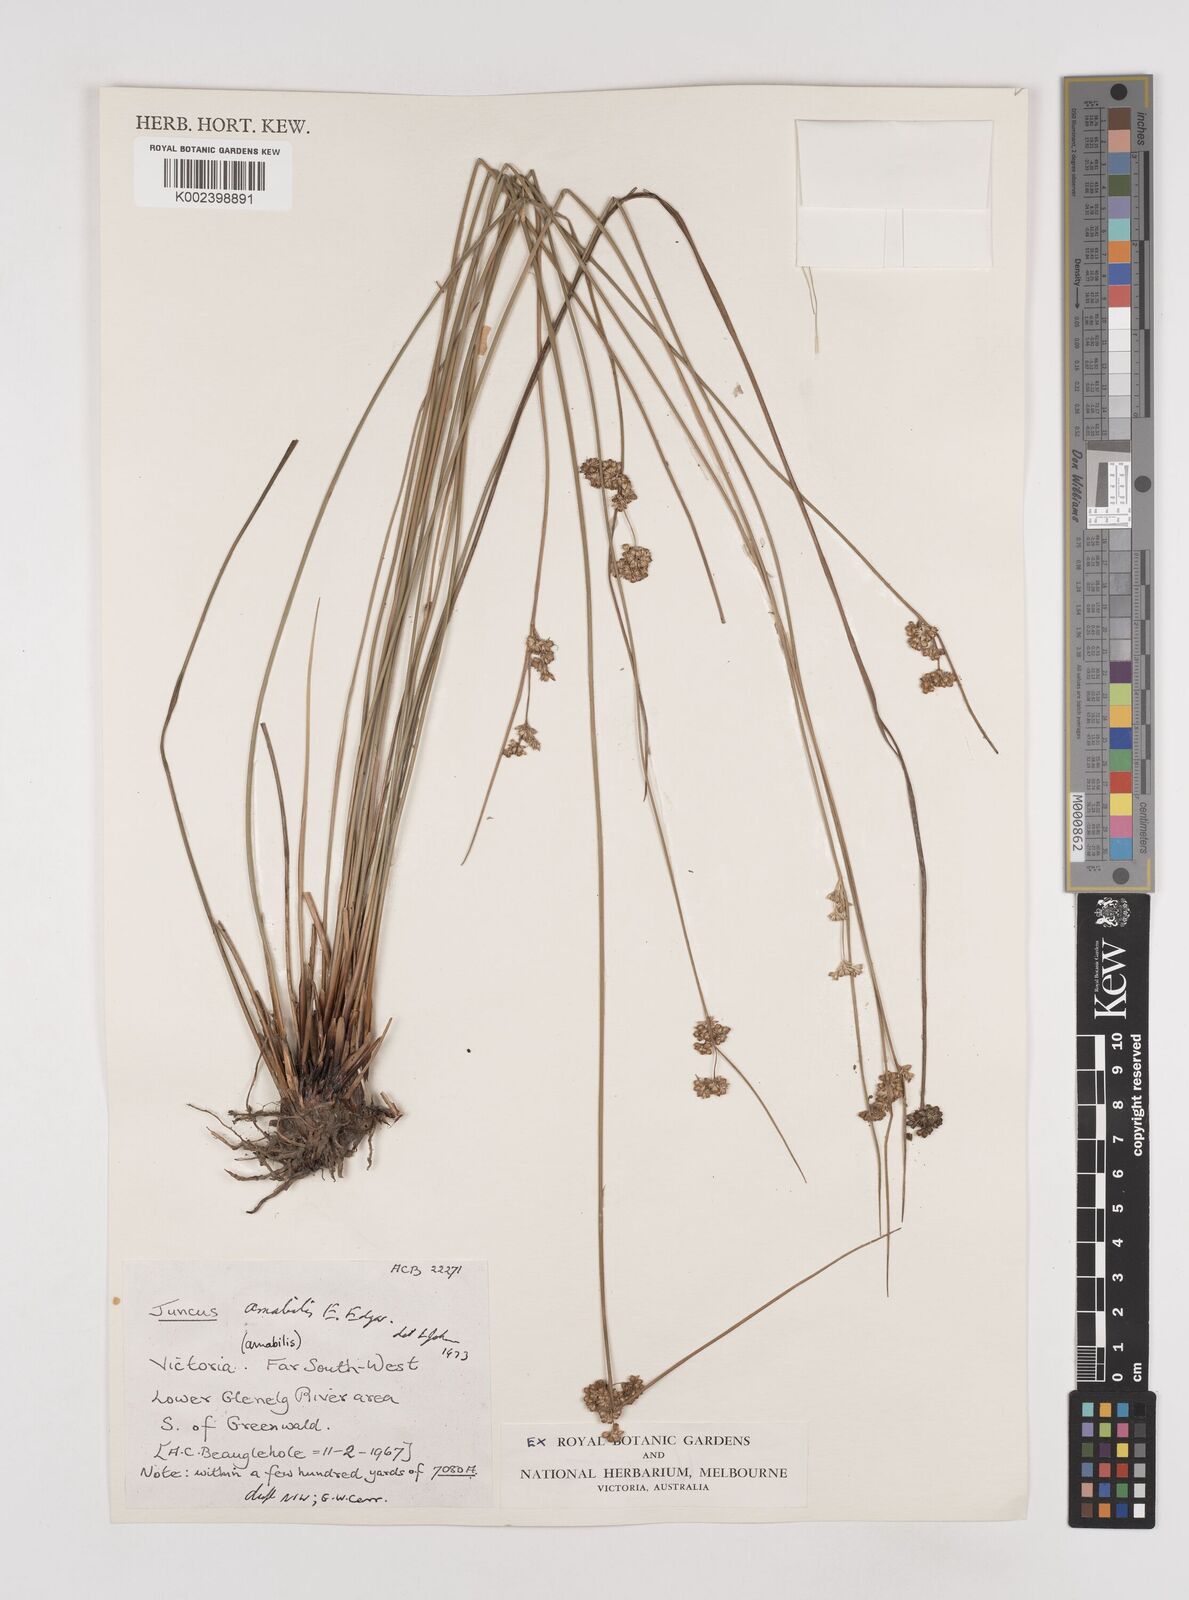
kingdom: Plantae
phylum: Tracheophyta
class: Liliopsida
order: Poales
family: Juncaceae
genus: Juncus
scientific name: Juncus amabilis
